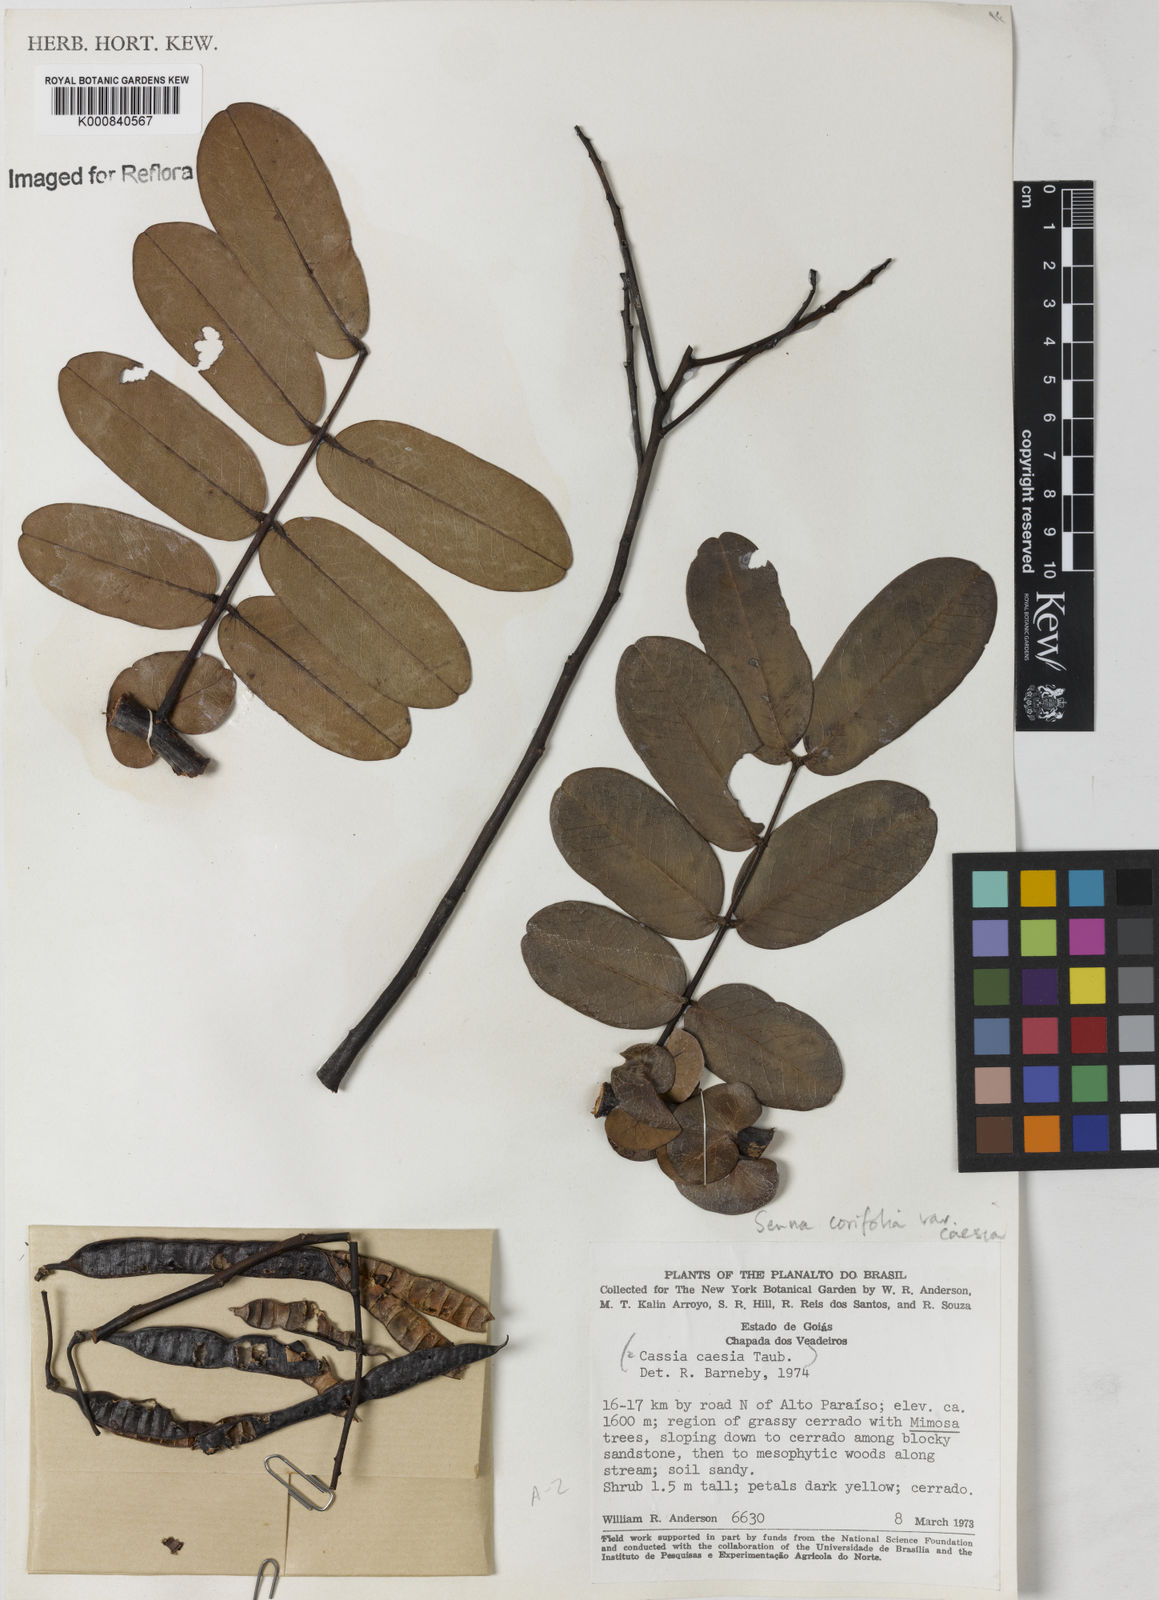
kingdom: Plantae
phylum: Tracheophyta
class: Magnoliopsida
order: Fabales
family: Fabaceae
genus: Senna
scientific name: Senna corifolia
